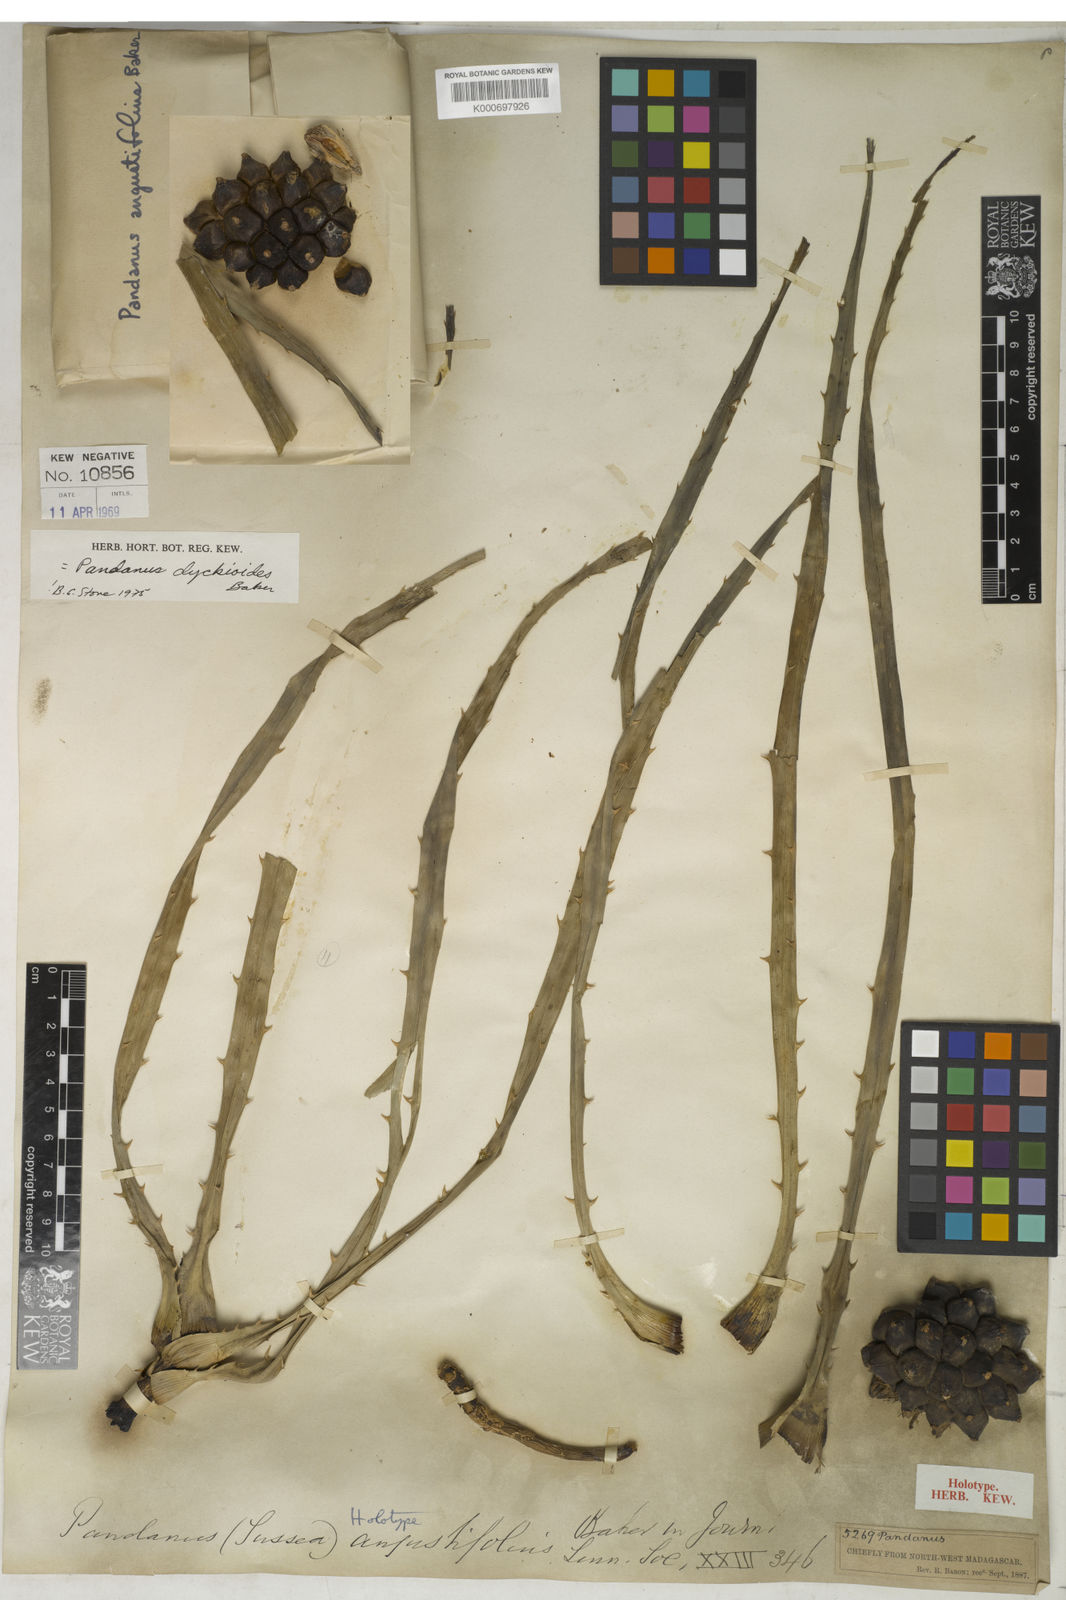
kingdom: Plantae
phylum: Tracheophyta
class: Liliopsida
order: Pandanales
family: Pandanaceae
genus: Pandanus
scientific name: Pandanus
